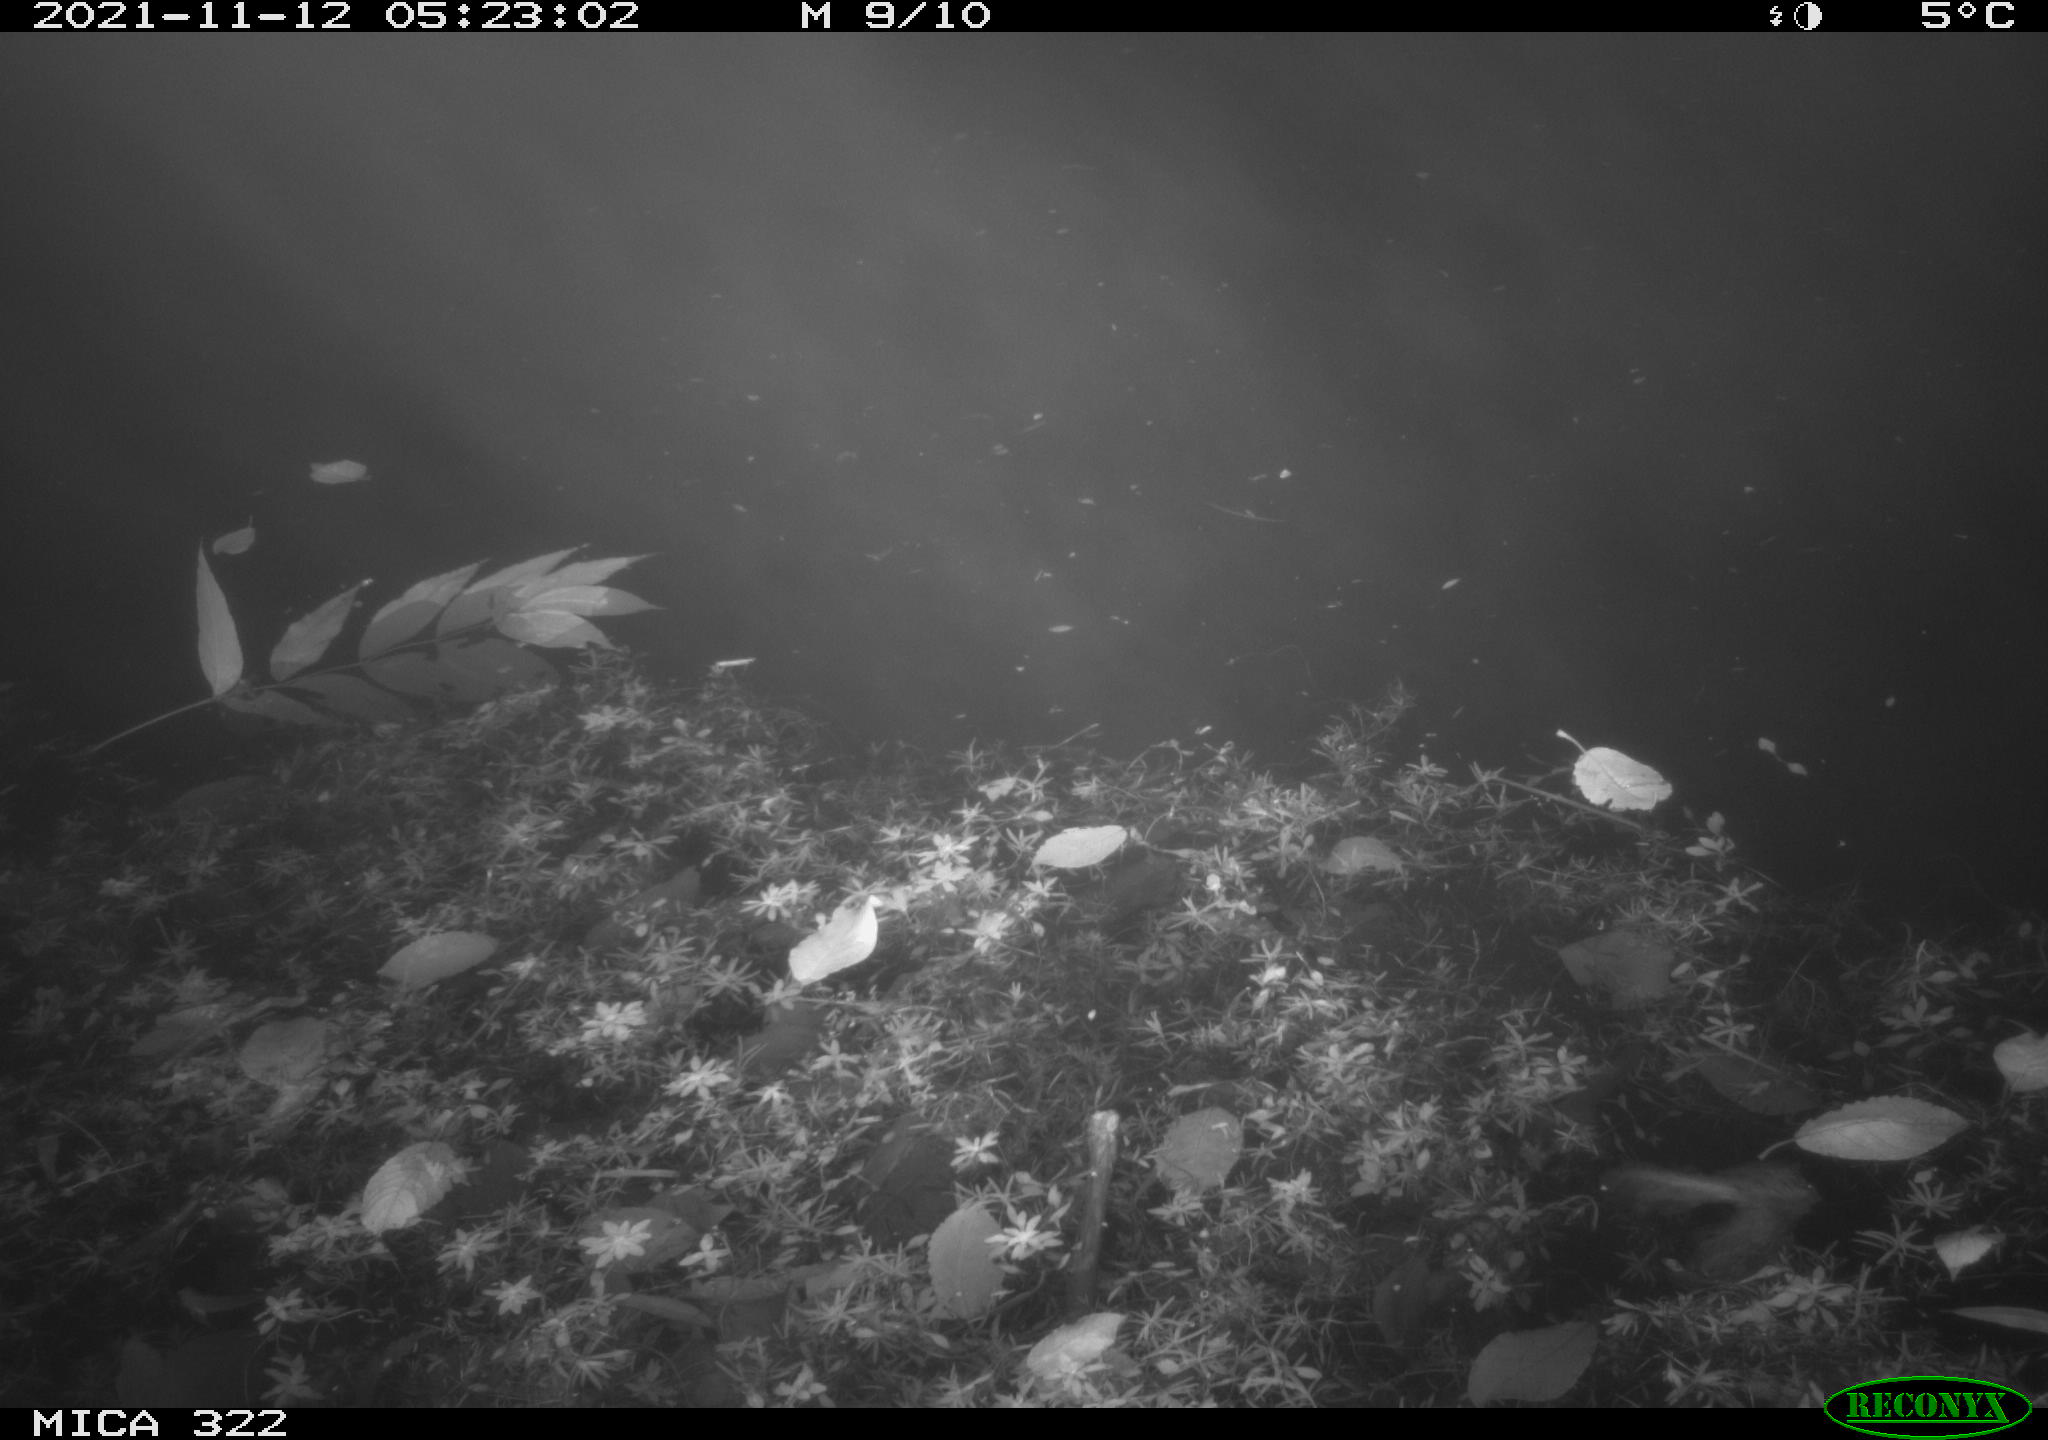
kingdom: Animalia
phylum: Chordata
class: Mammalia
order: Rodentia
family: Muridae
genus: Rattus
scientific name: Rattus norvegicus
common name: Brown rat
